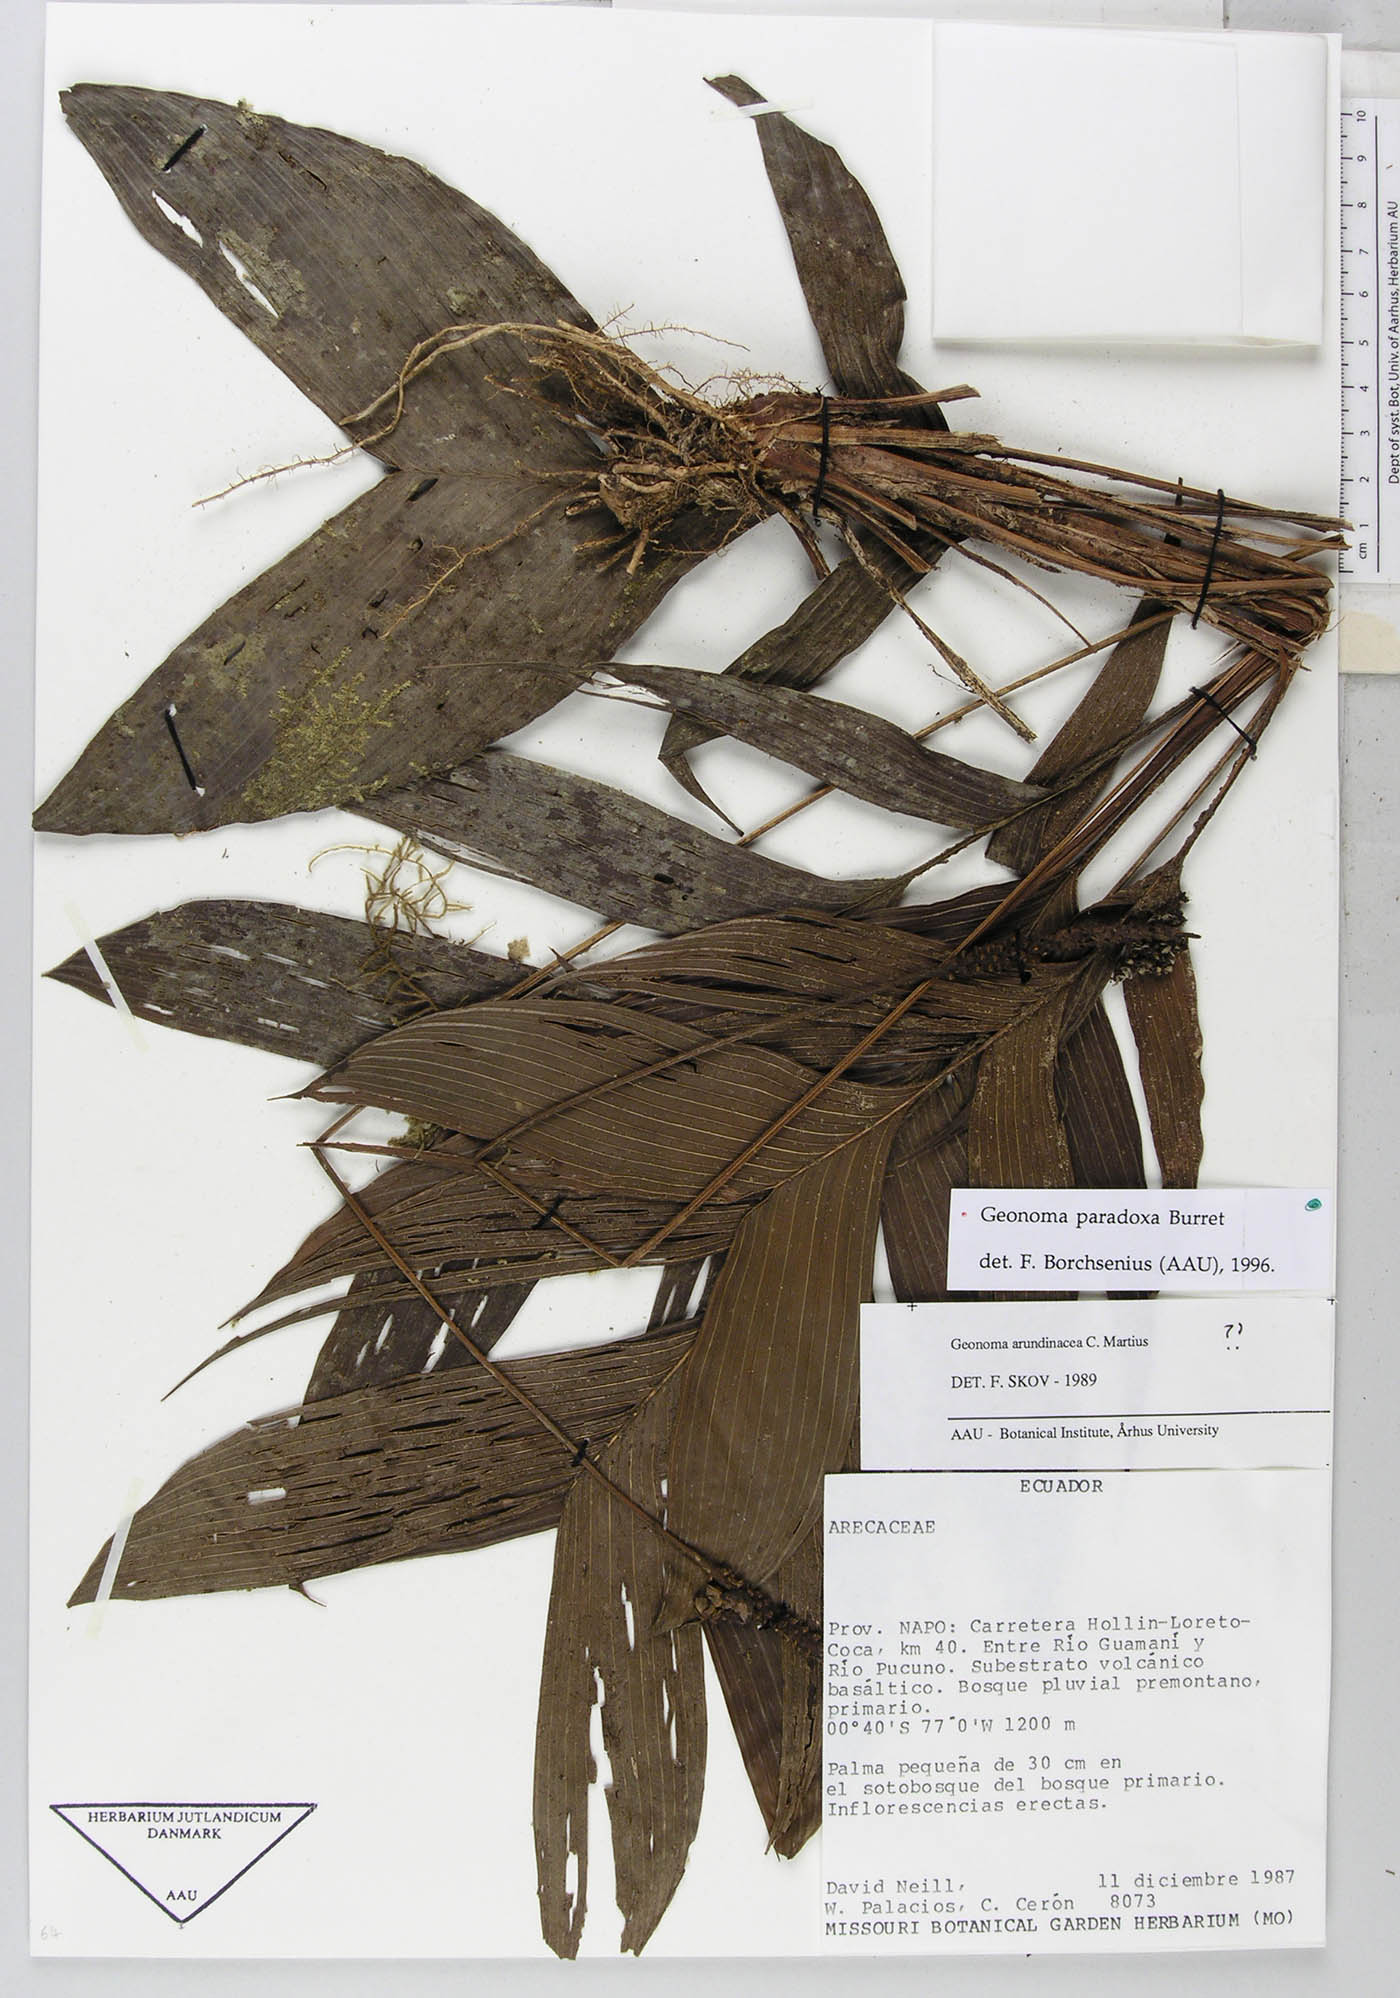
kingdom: Plantae
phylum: Tracheophyta
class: Liliopsida
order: Arecales
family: Arecaceae
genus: Geonoma
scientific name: Geonoma macrostachys
